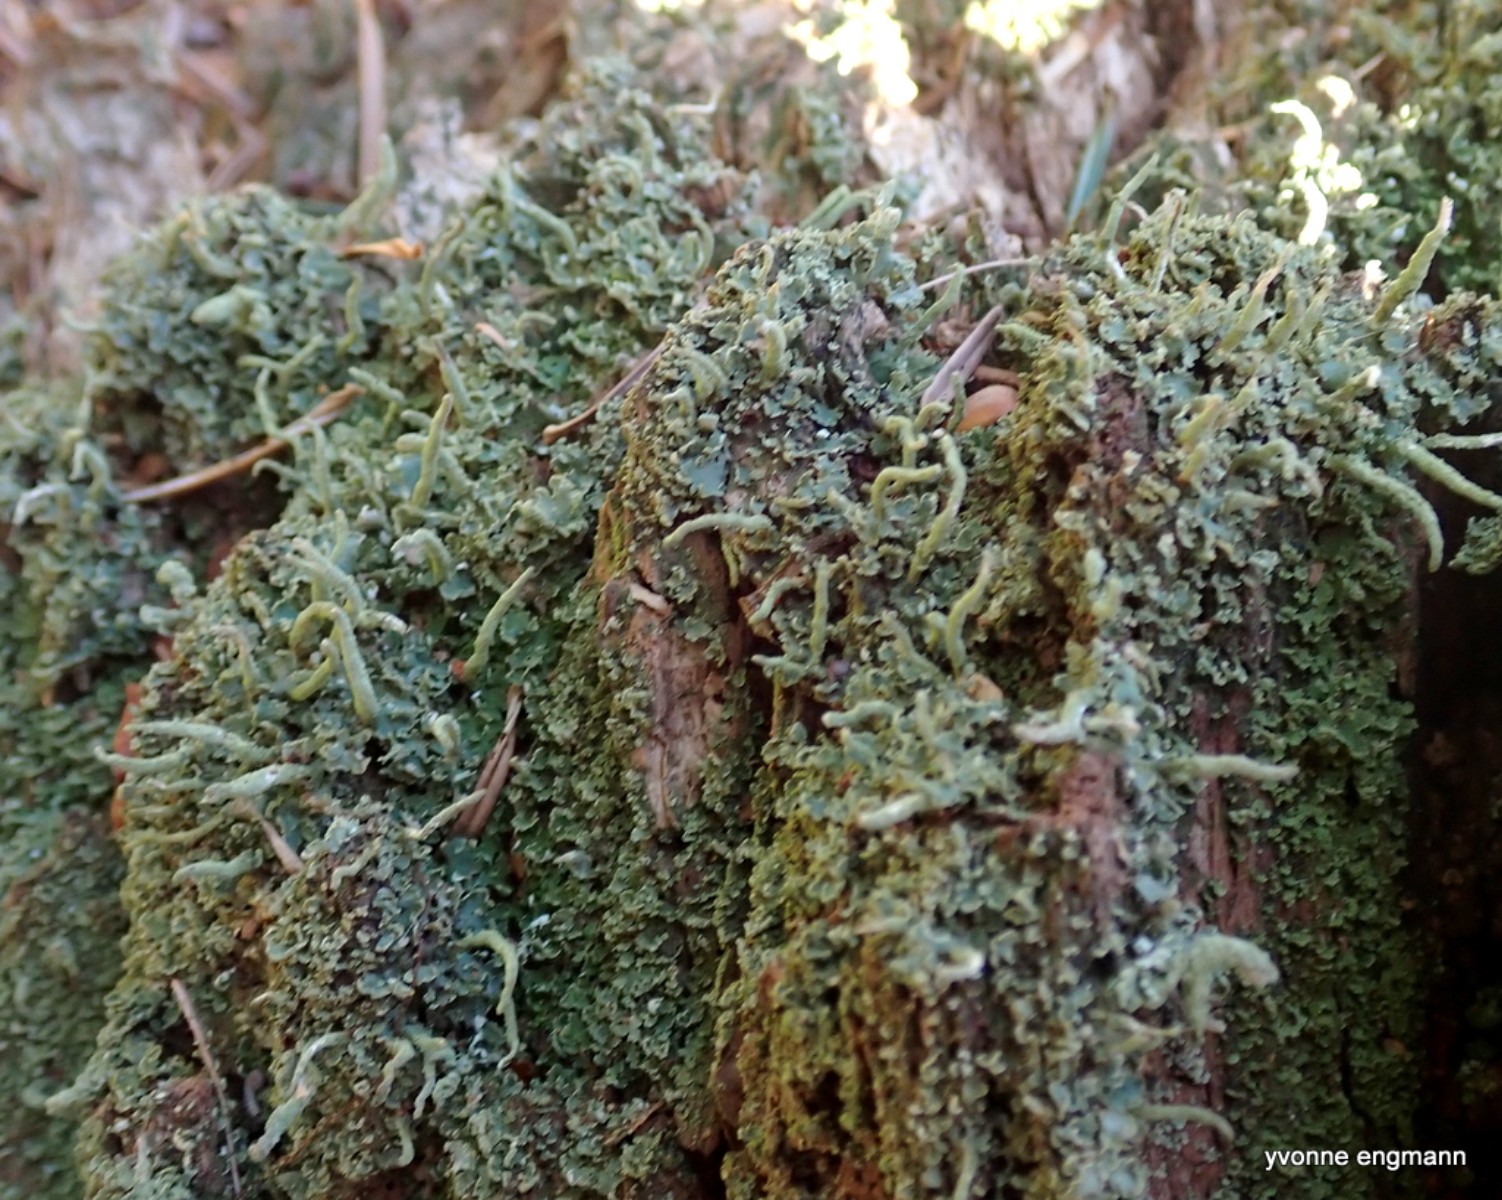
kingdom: Fungi
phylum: Ascomycota
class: Lecanoromycetes
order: Lecanorales
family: Cladoniaceae
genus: Cladonia
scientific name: Cladonia coniocraea
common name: træfods-bægerlav
